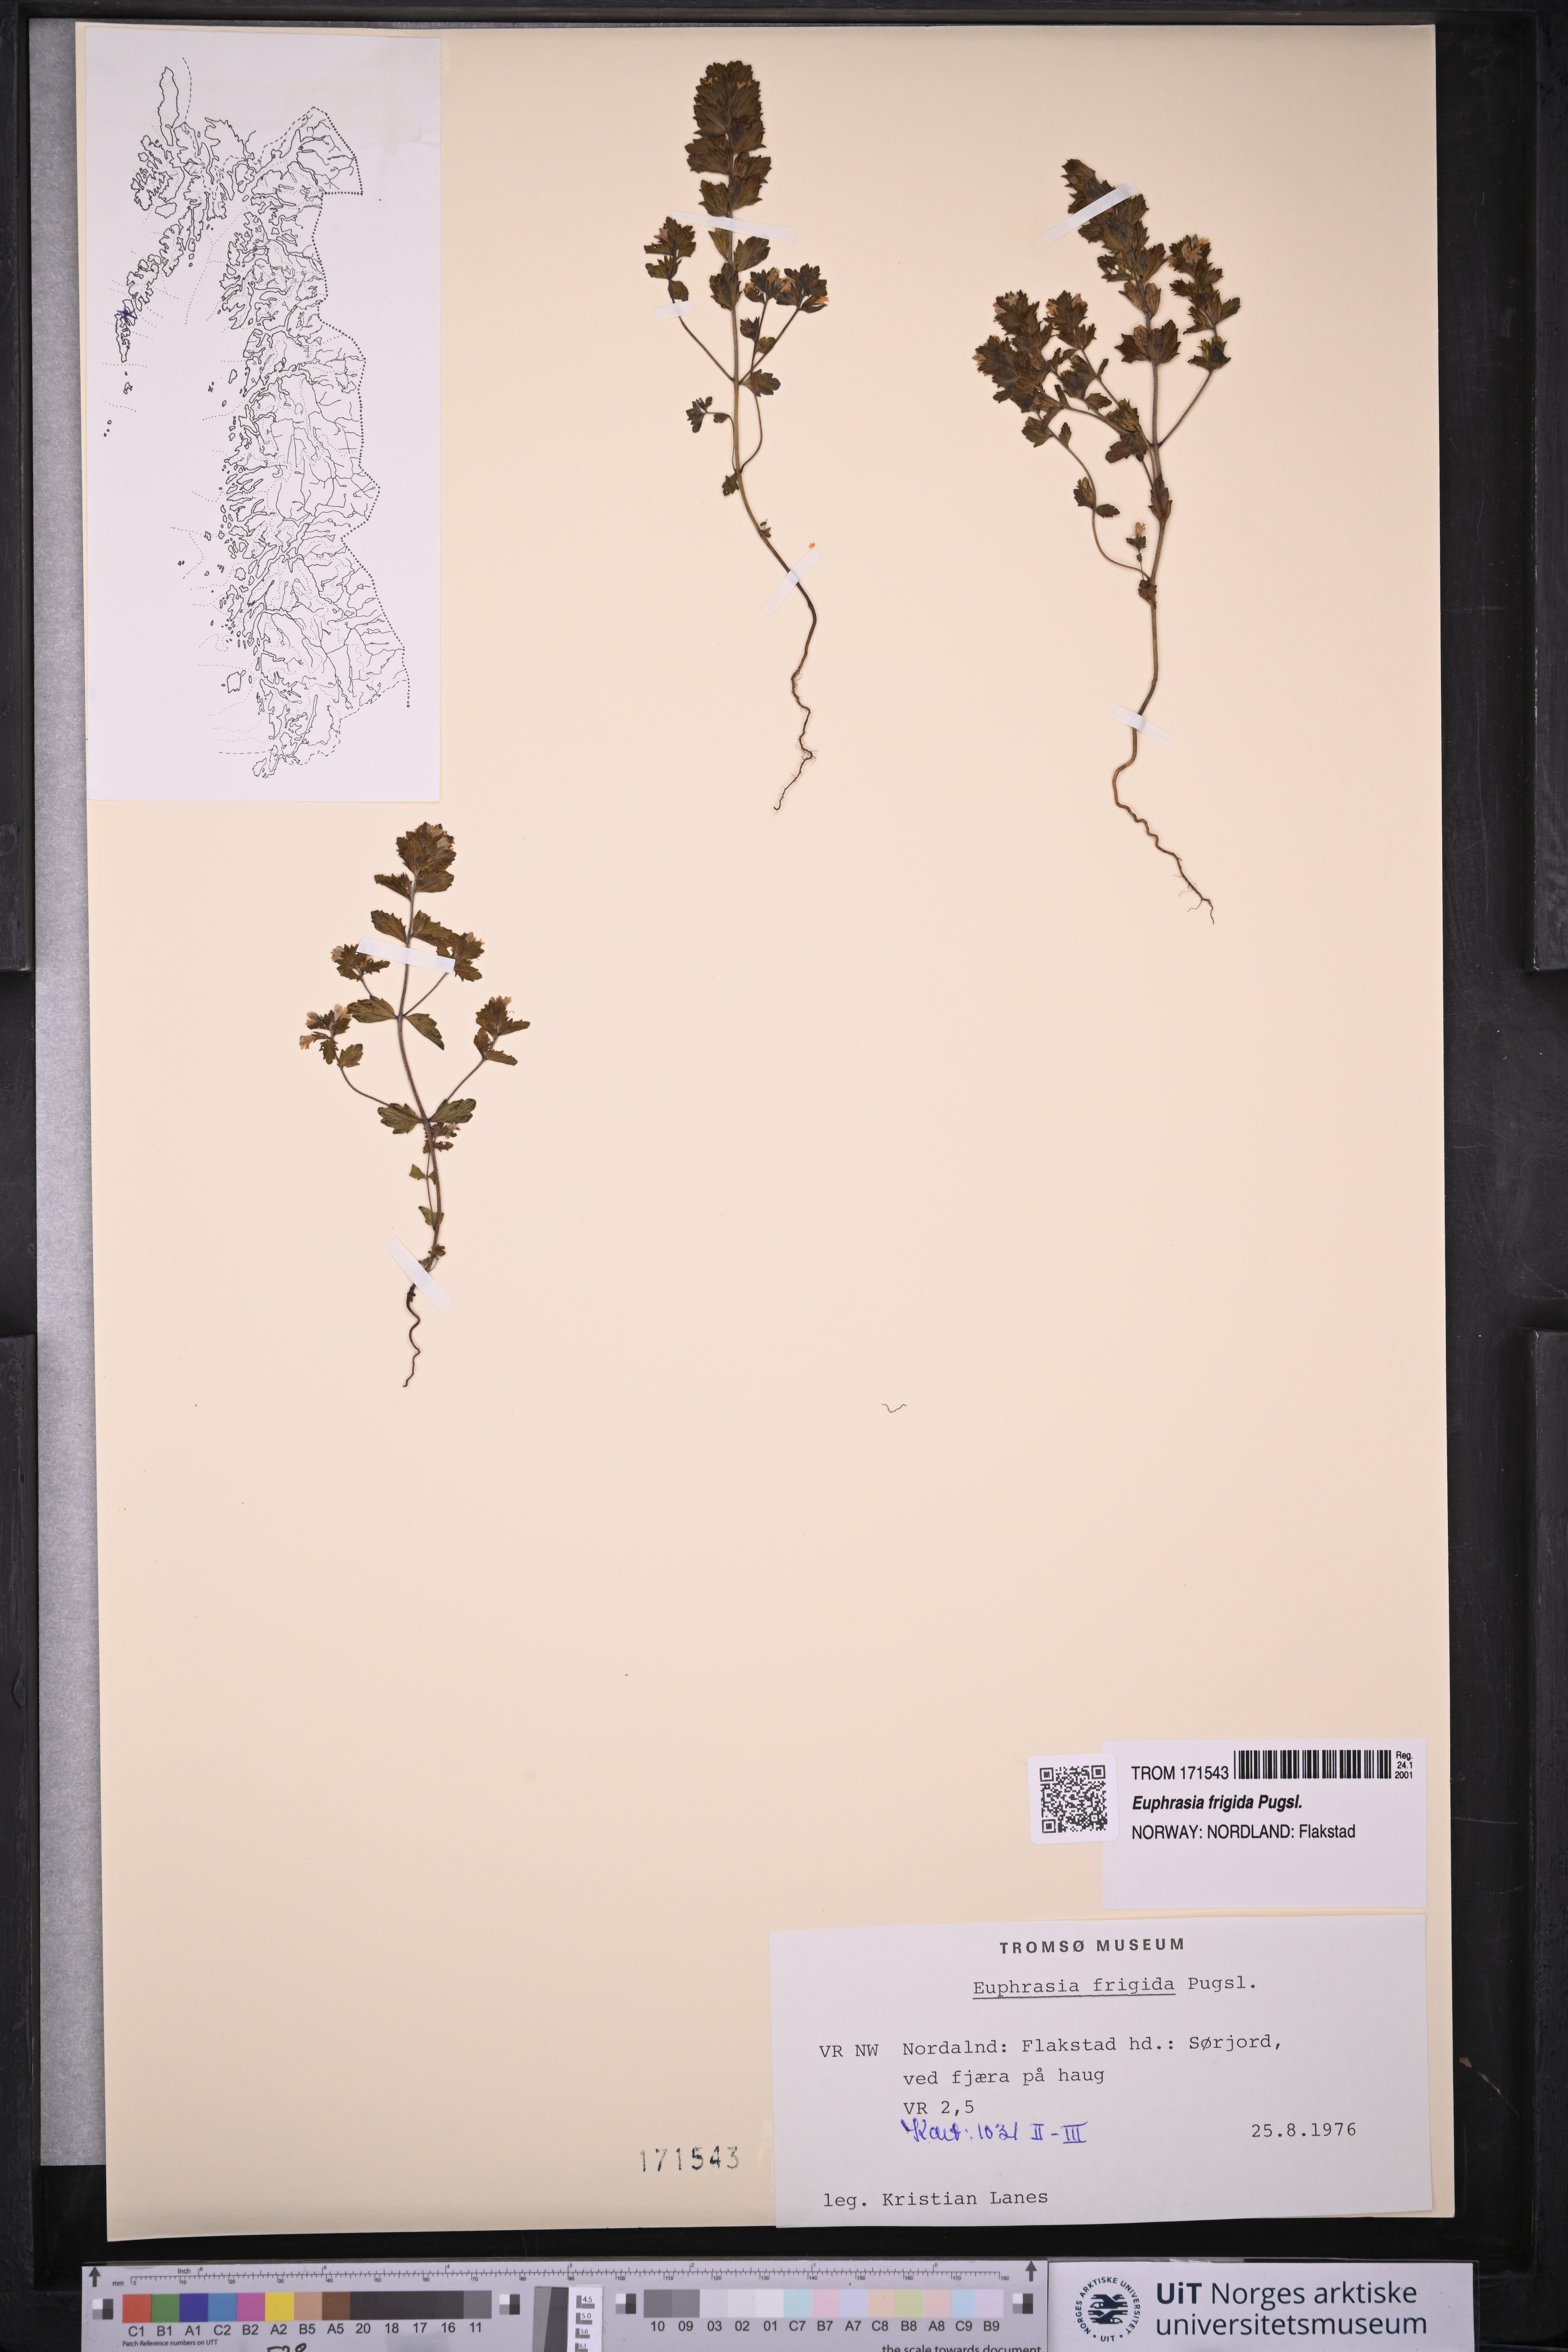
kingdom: Plantae
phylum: Tracheophyta
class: Magnoliopsida
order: Lamiales
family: Orobanchaceae
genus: Euphrasia
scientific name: Euphrasia frigida
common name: An eyebright
